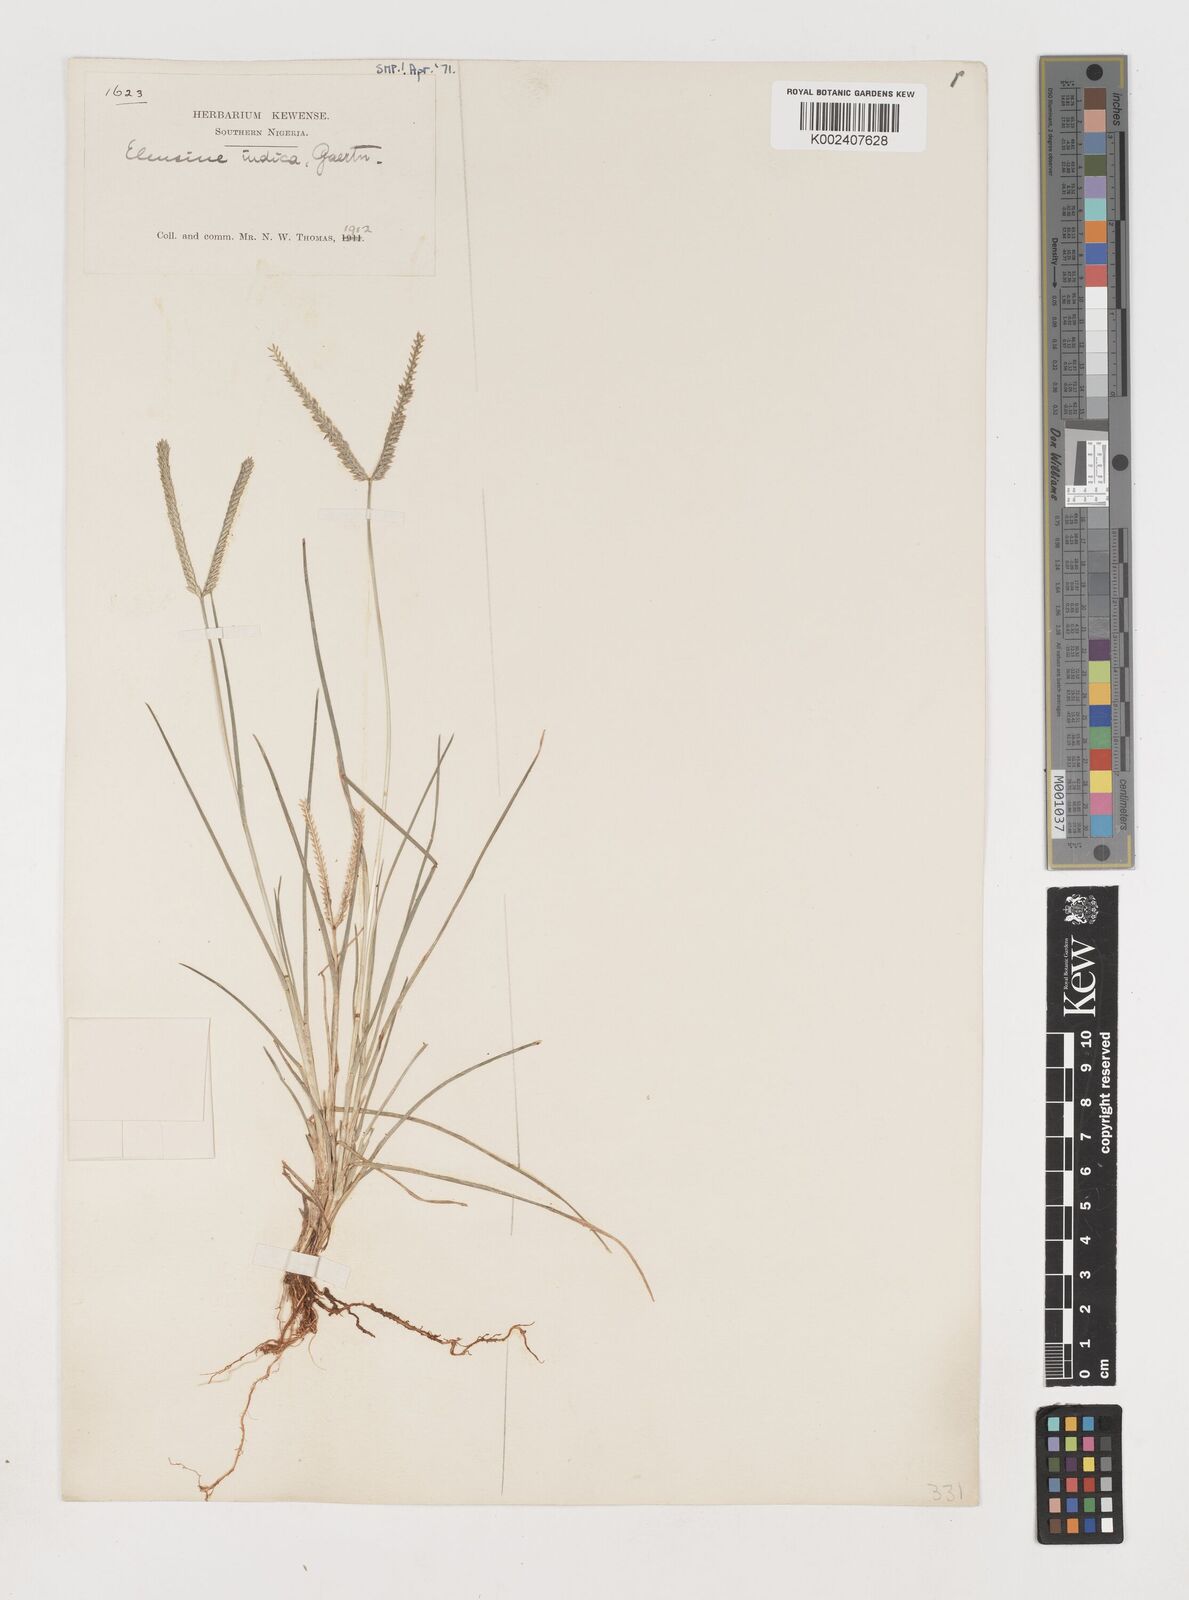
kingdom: Plantae
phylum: Tracheophyta
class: Liliopsida
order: Poales
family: Poaceae
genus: Eleusine
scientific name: Eleusine indica
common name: Yard-grass
